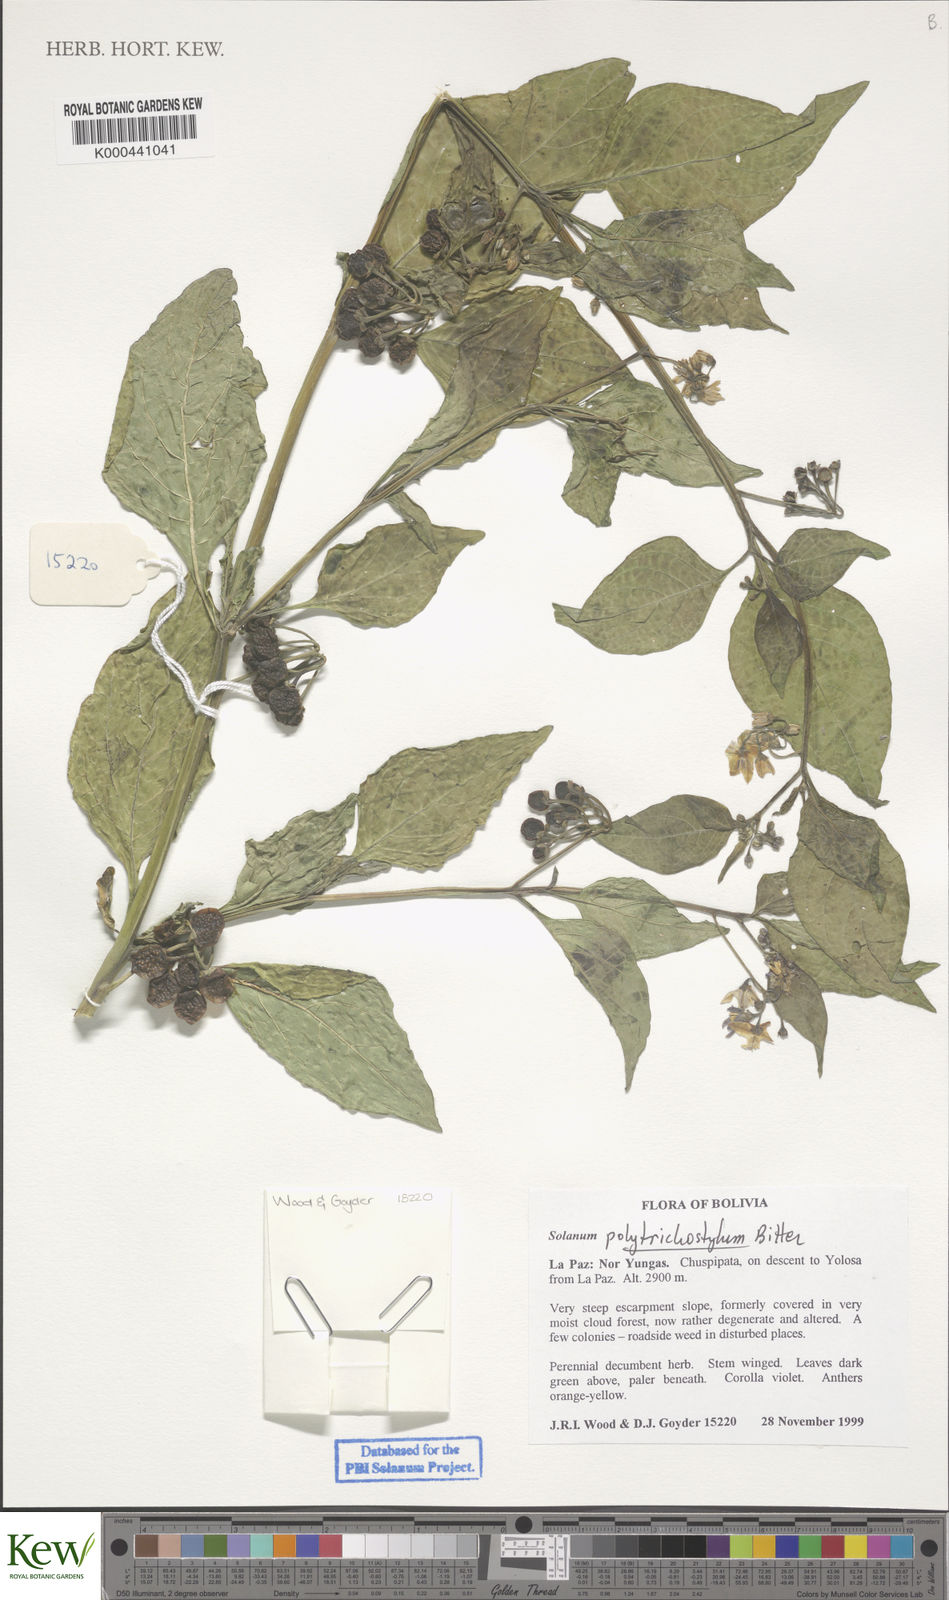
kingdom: Plantae
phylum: Tracheophyta
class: Magnoliopsida
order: Solanales
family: Solanaceae
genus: Solanum
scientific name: Solanum polytrichostylum
